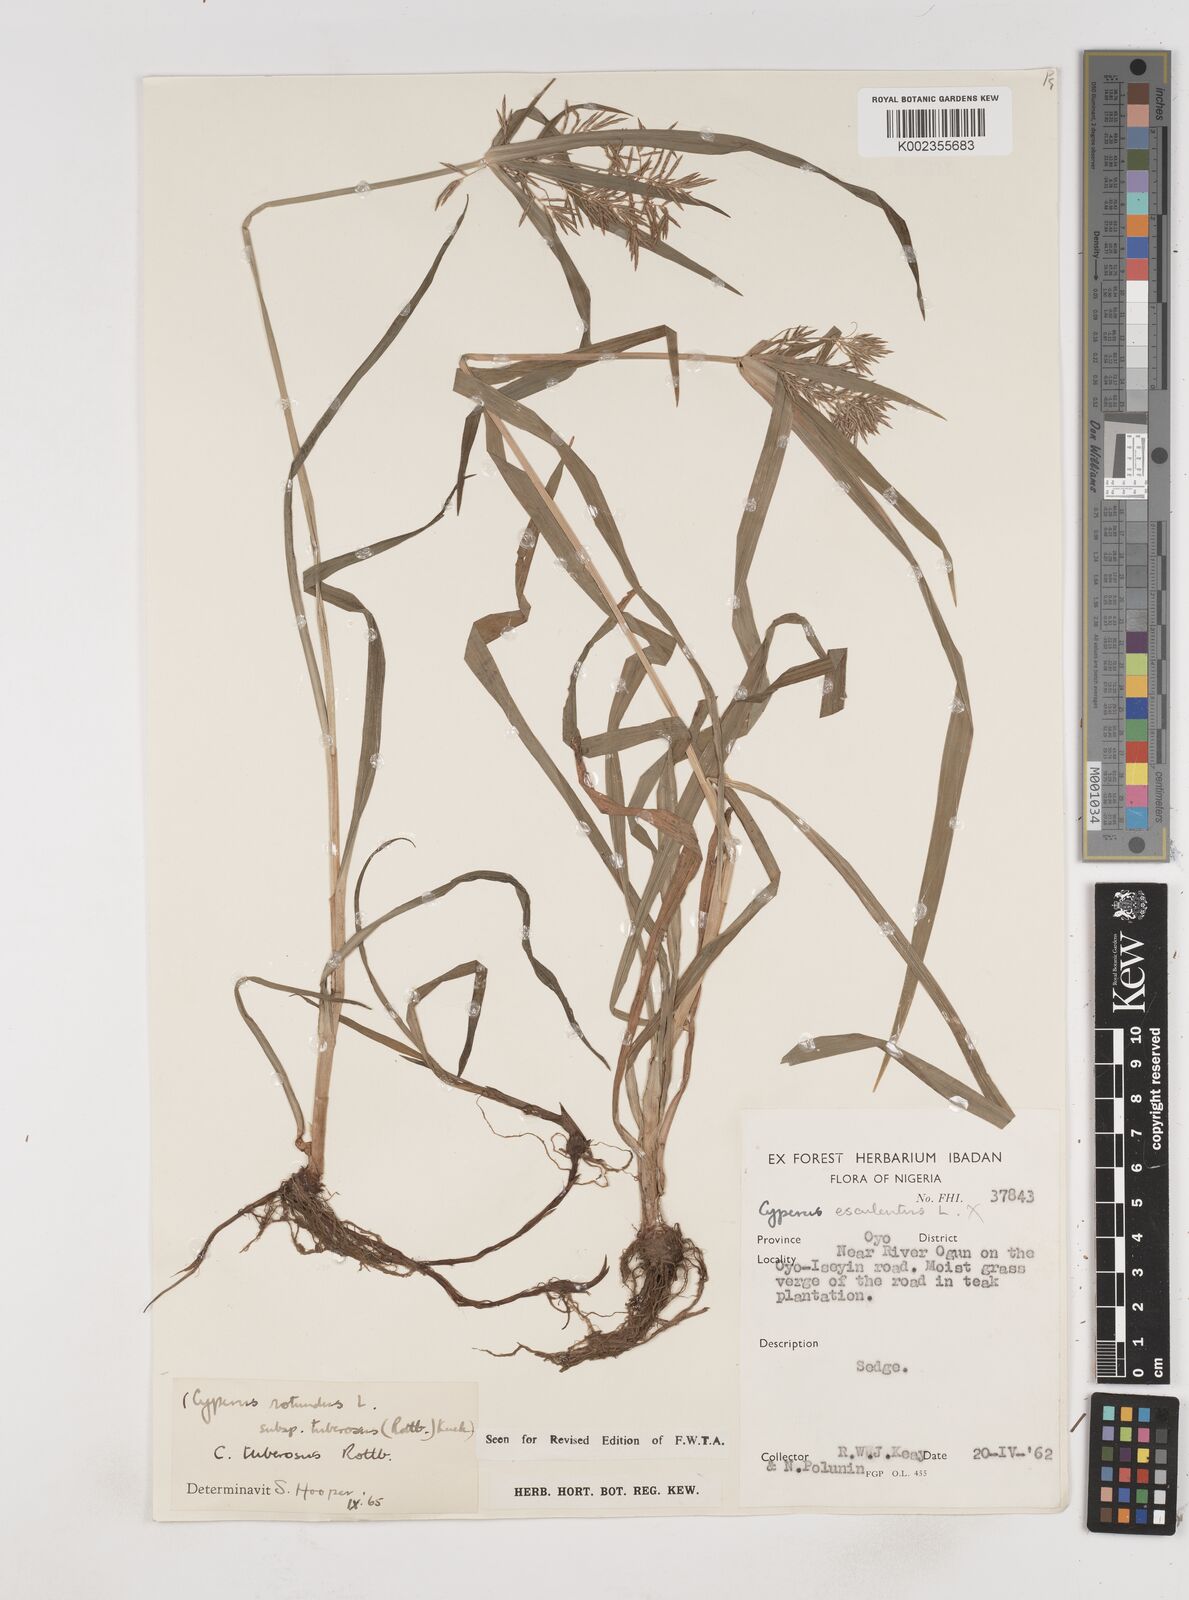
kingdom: Plantae
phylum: Tracheophyta
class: Liliopsida
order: Poales
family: Cyperaceae
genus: Cyperus
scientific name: Cyperus tuberosus
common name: Nut grass
